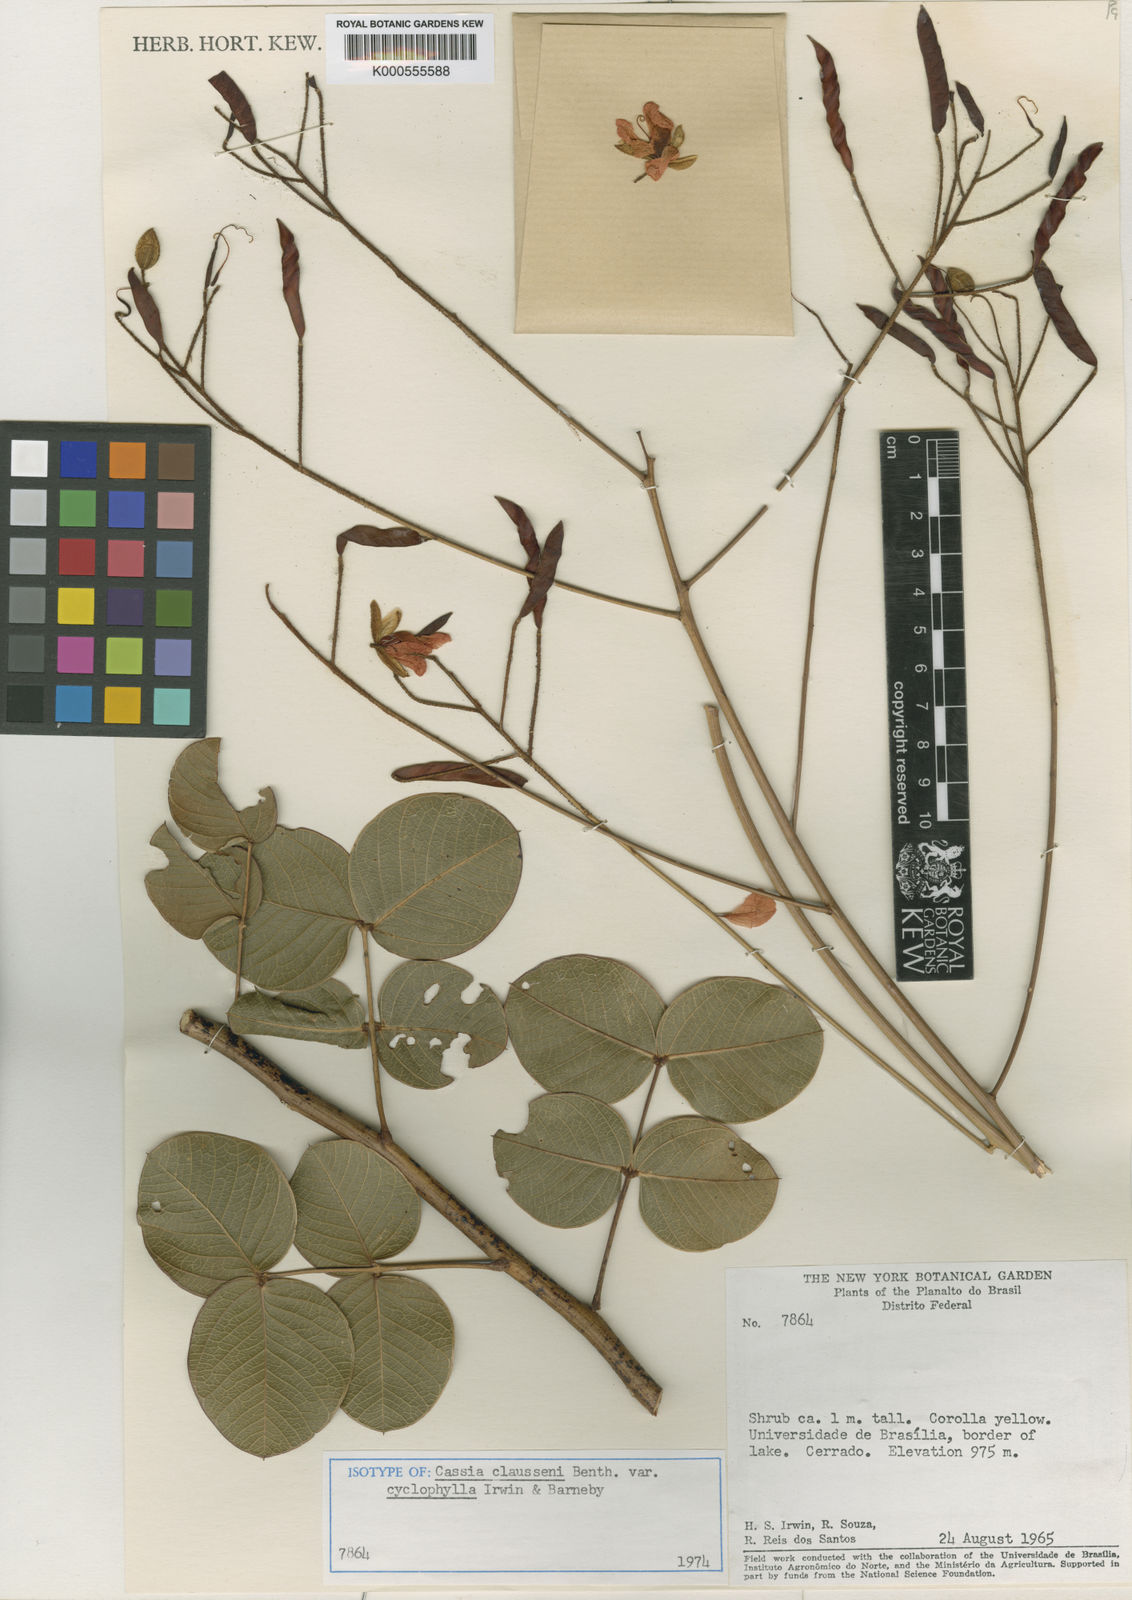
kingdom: Plantae
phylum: Tracheophyta
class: Magnoliopsida
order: Fabales
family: Fabaceae
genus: Chamaecrista
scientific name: Chamaecrista cyclophylla
